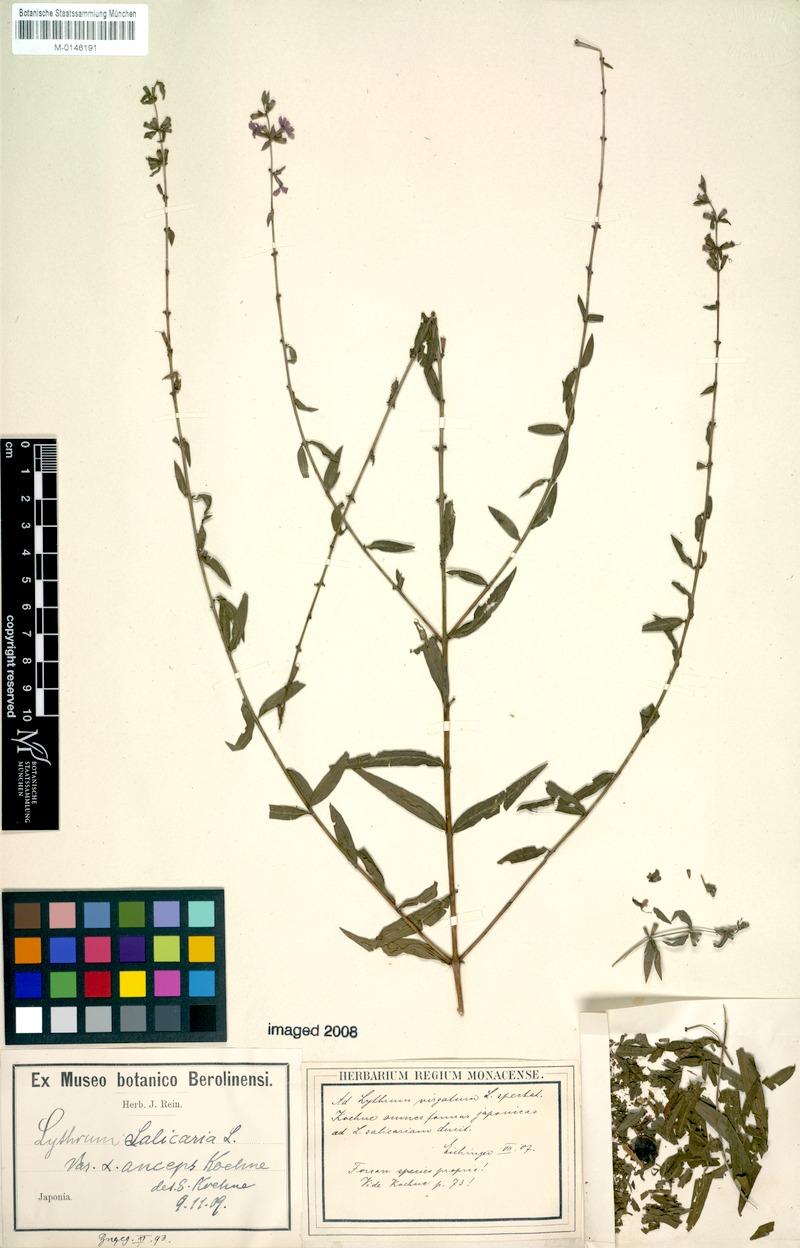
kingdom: Plantae
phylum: Tracheophyta
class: Magnoliopsida
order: Myrtales
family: Lythraceae
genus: Lythrum
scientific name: Lythrum salicaria
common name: Purple loosestrife
